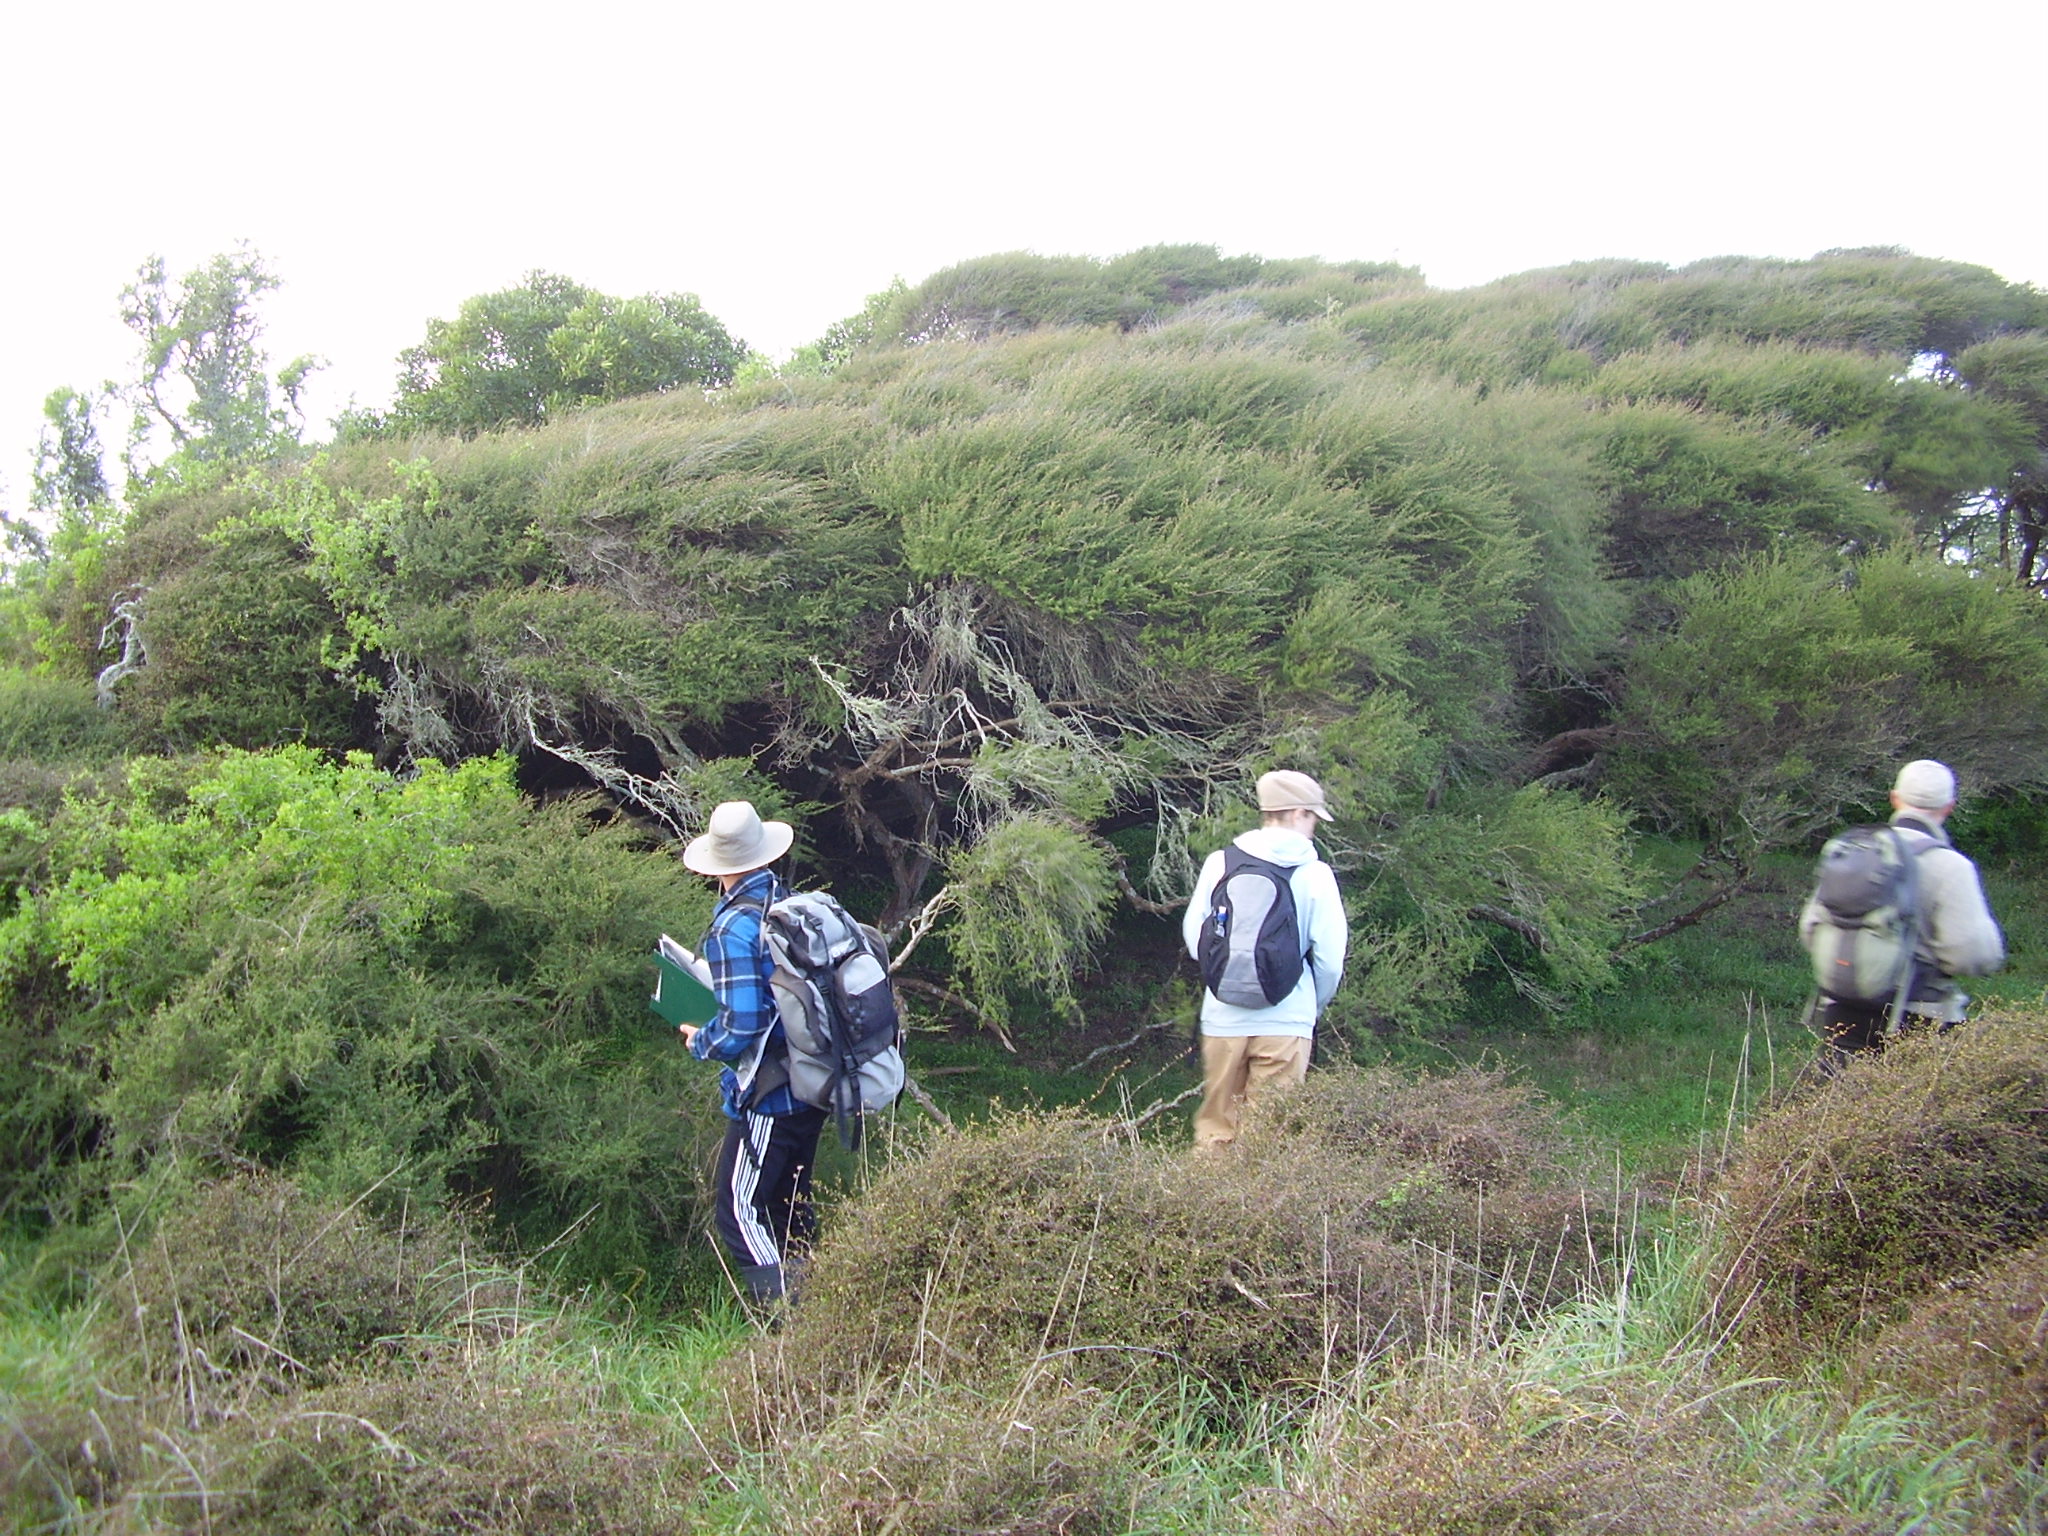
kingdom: Plantae
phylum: Tracheophyta
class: Magnoliopsida
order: Myrtales
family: Myrtaceae
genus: Kunzea
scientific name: Kunzea toelkenii
